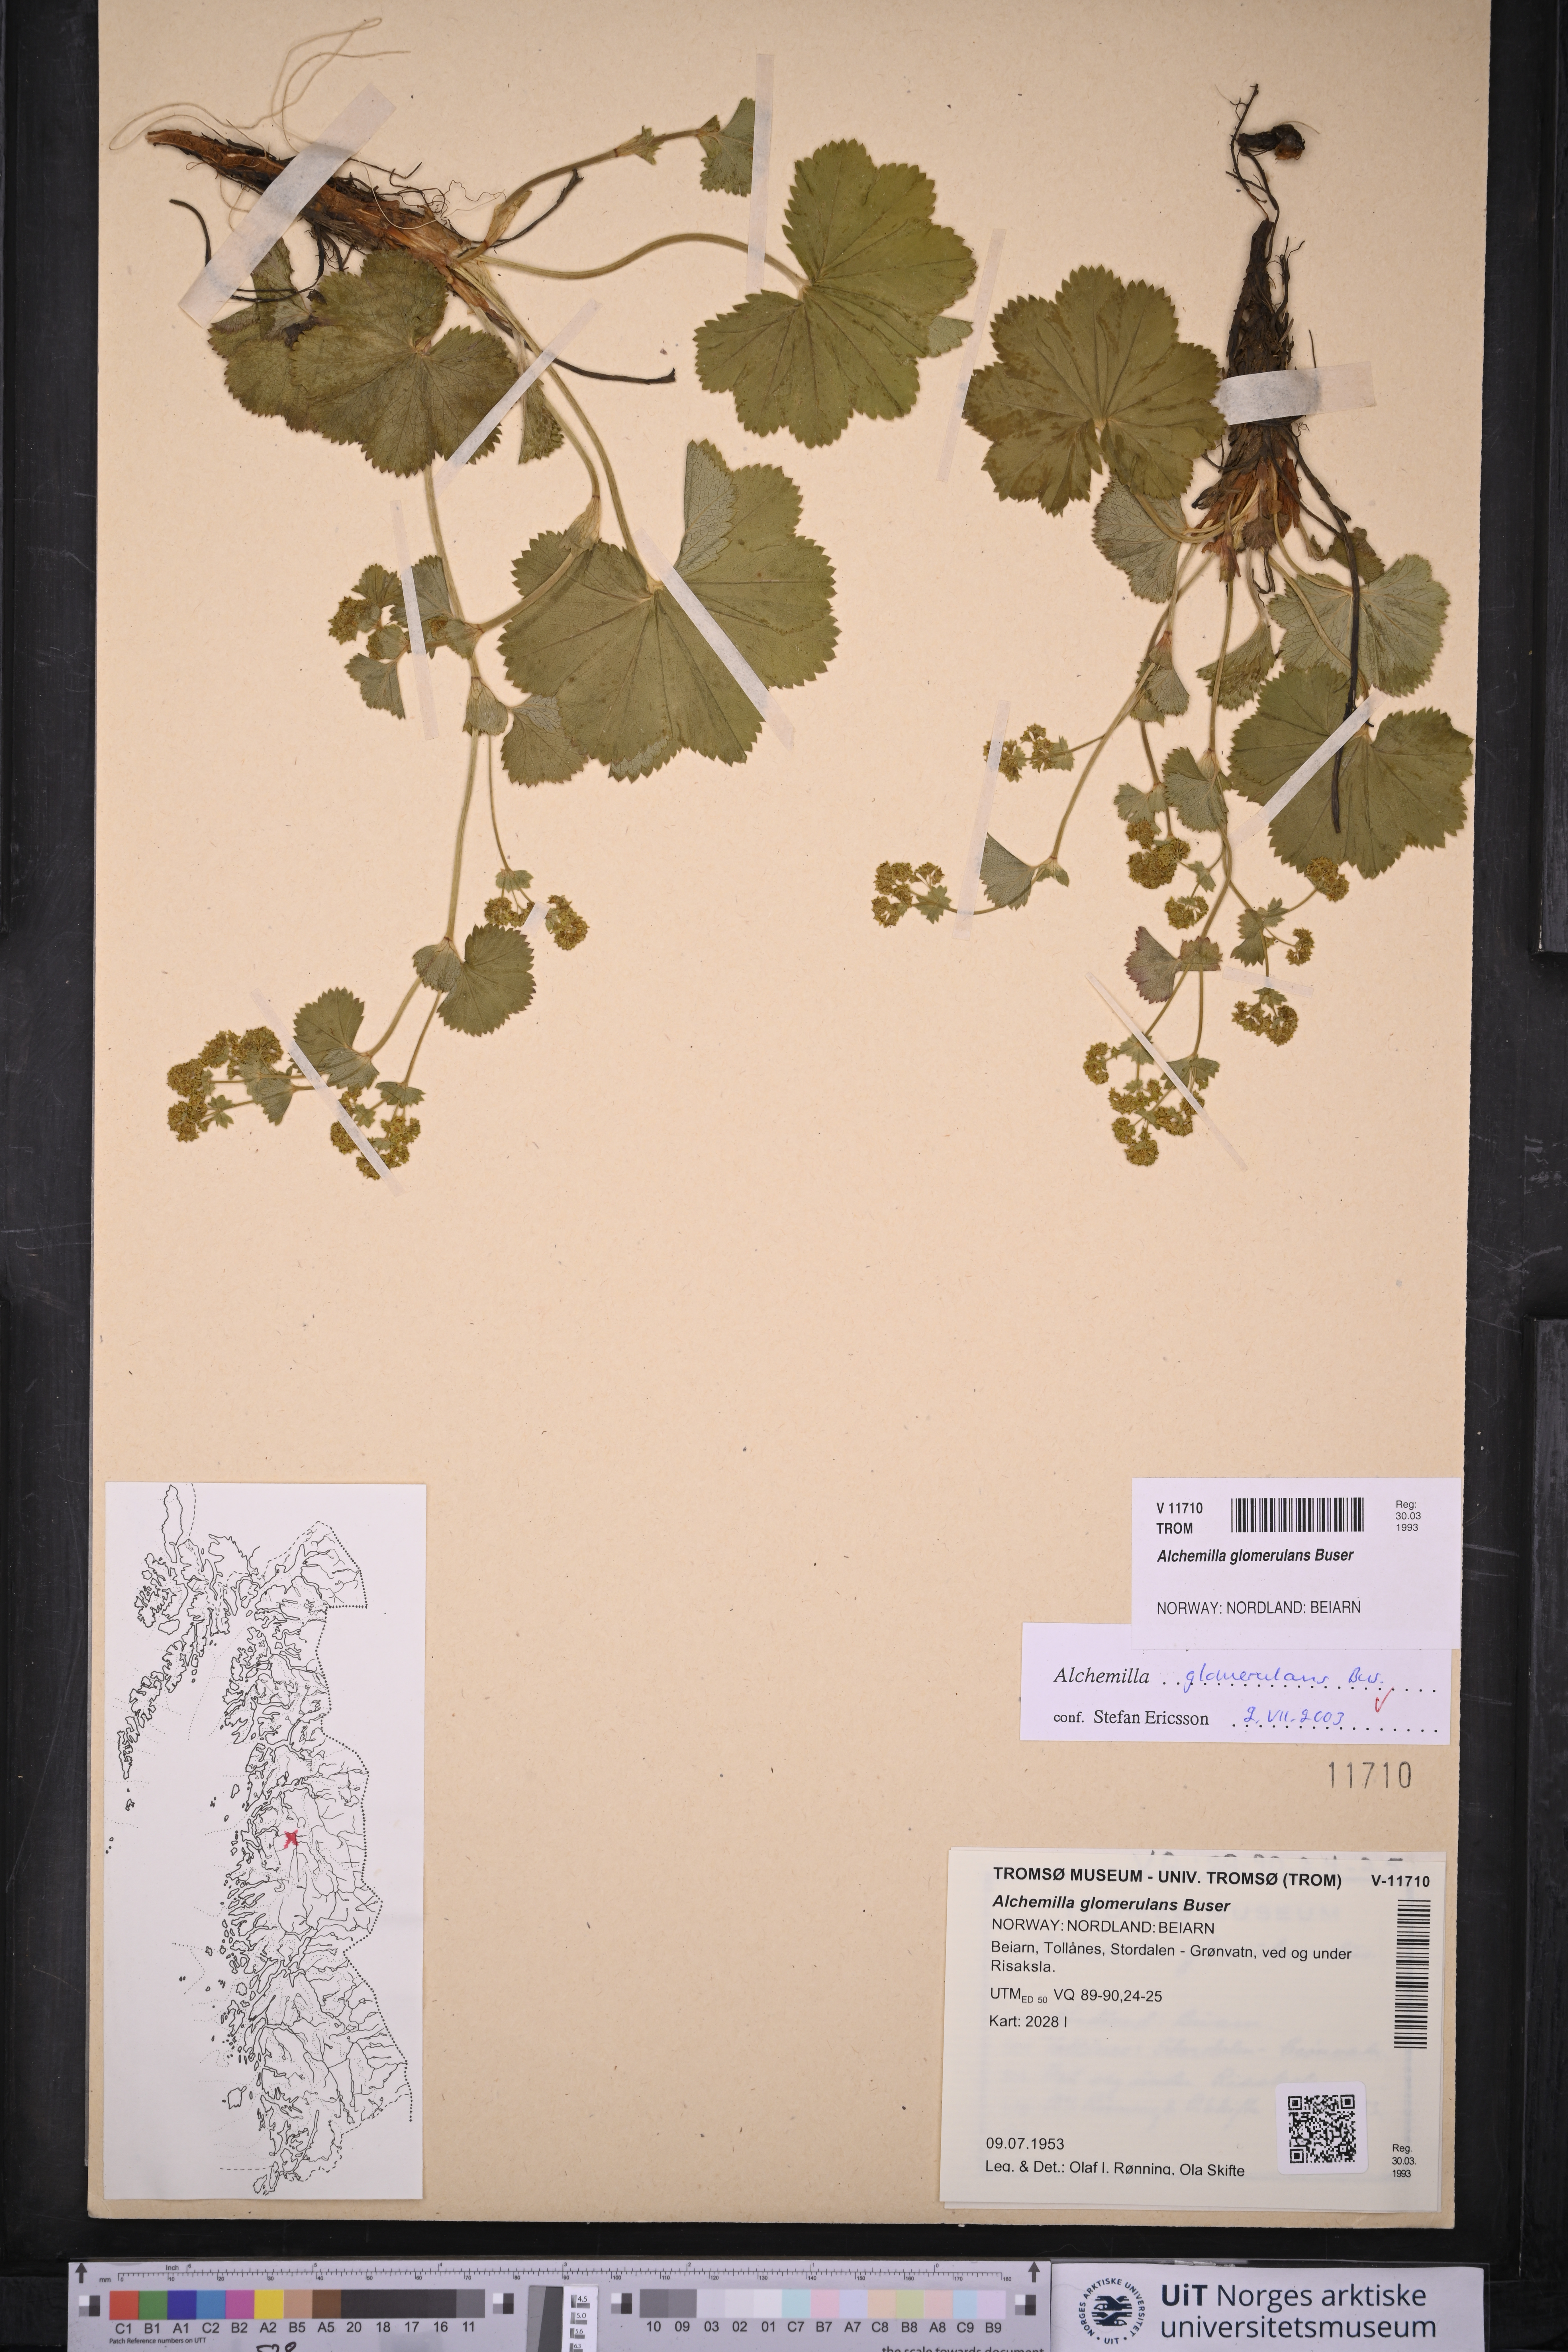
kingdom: Plantae
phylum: Tracheophyta
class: Magnoliopsida
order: Rosales
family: Rosaceae
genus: Alchemilla
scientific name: Alchemilla glomerulans
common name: Clustered lady's mantle
